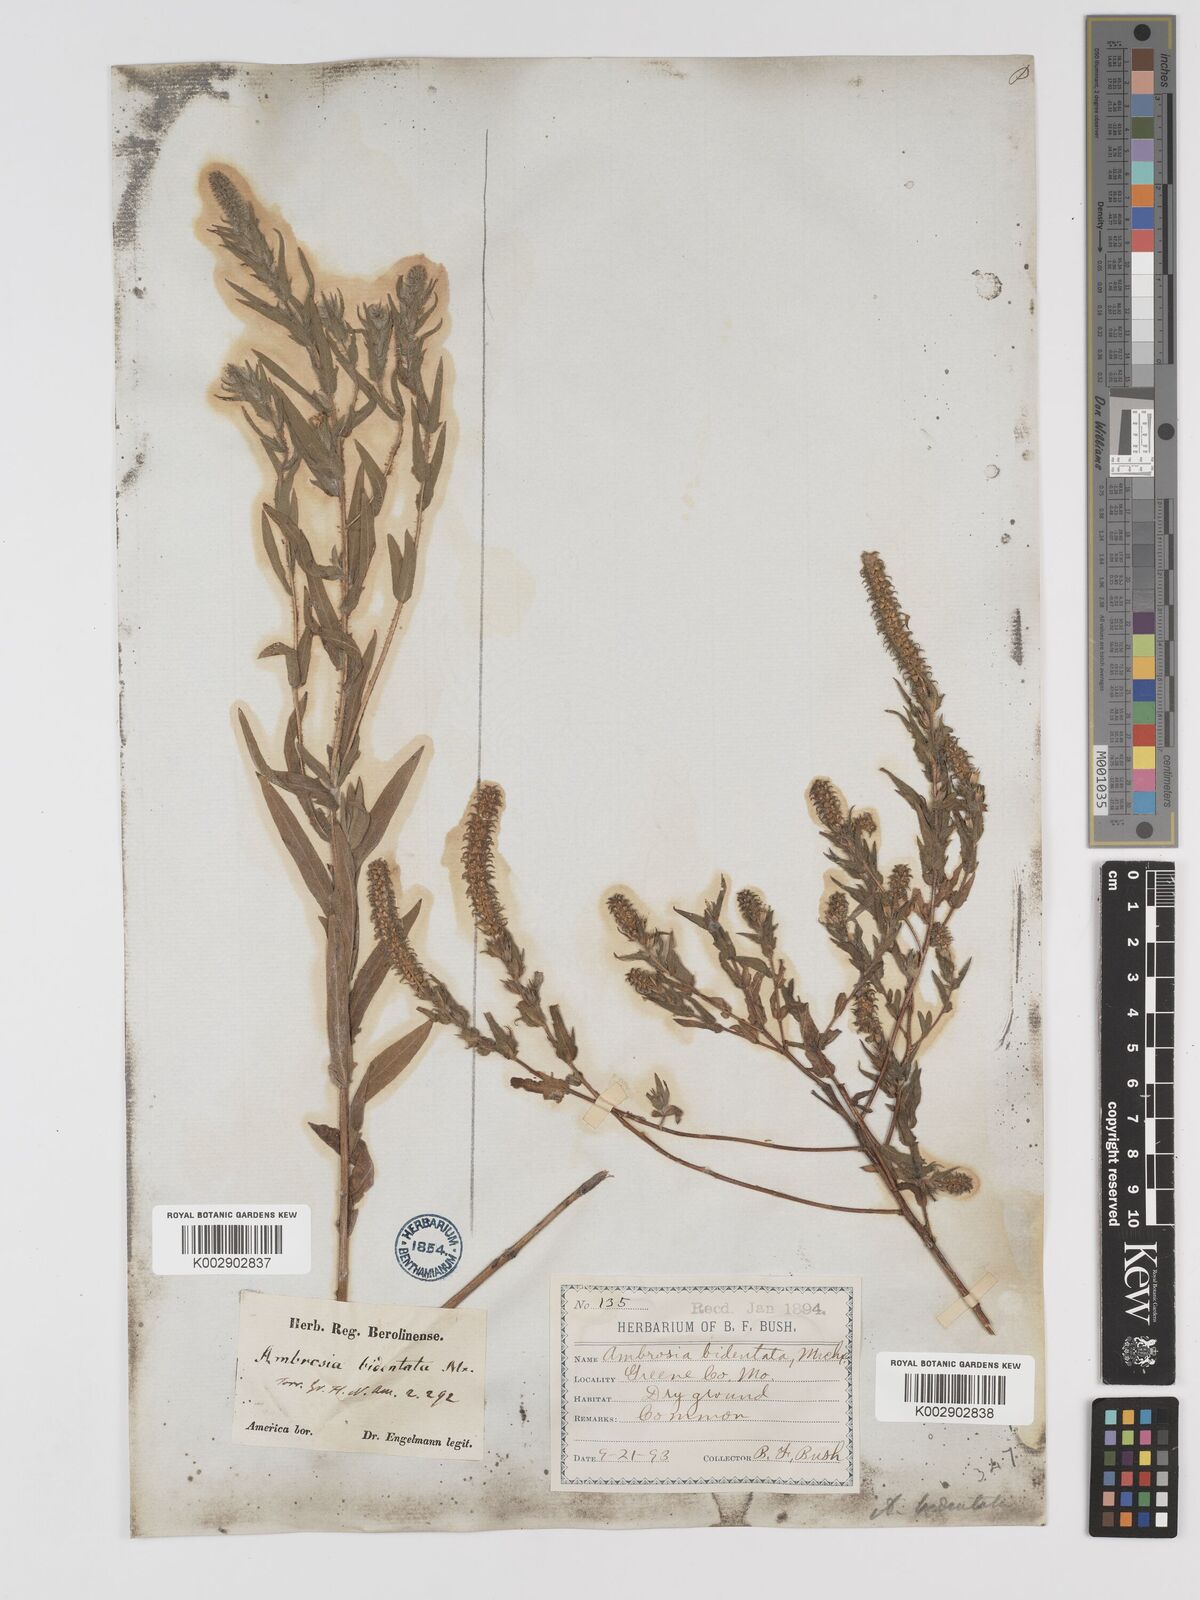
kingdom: Plantae
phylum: Tracheophyta
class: Magnoliopsida
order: Asterales
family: Asteraceae
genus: Ambrosia
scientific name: Ambrosia bidentata
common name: Southern ragweed
